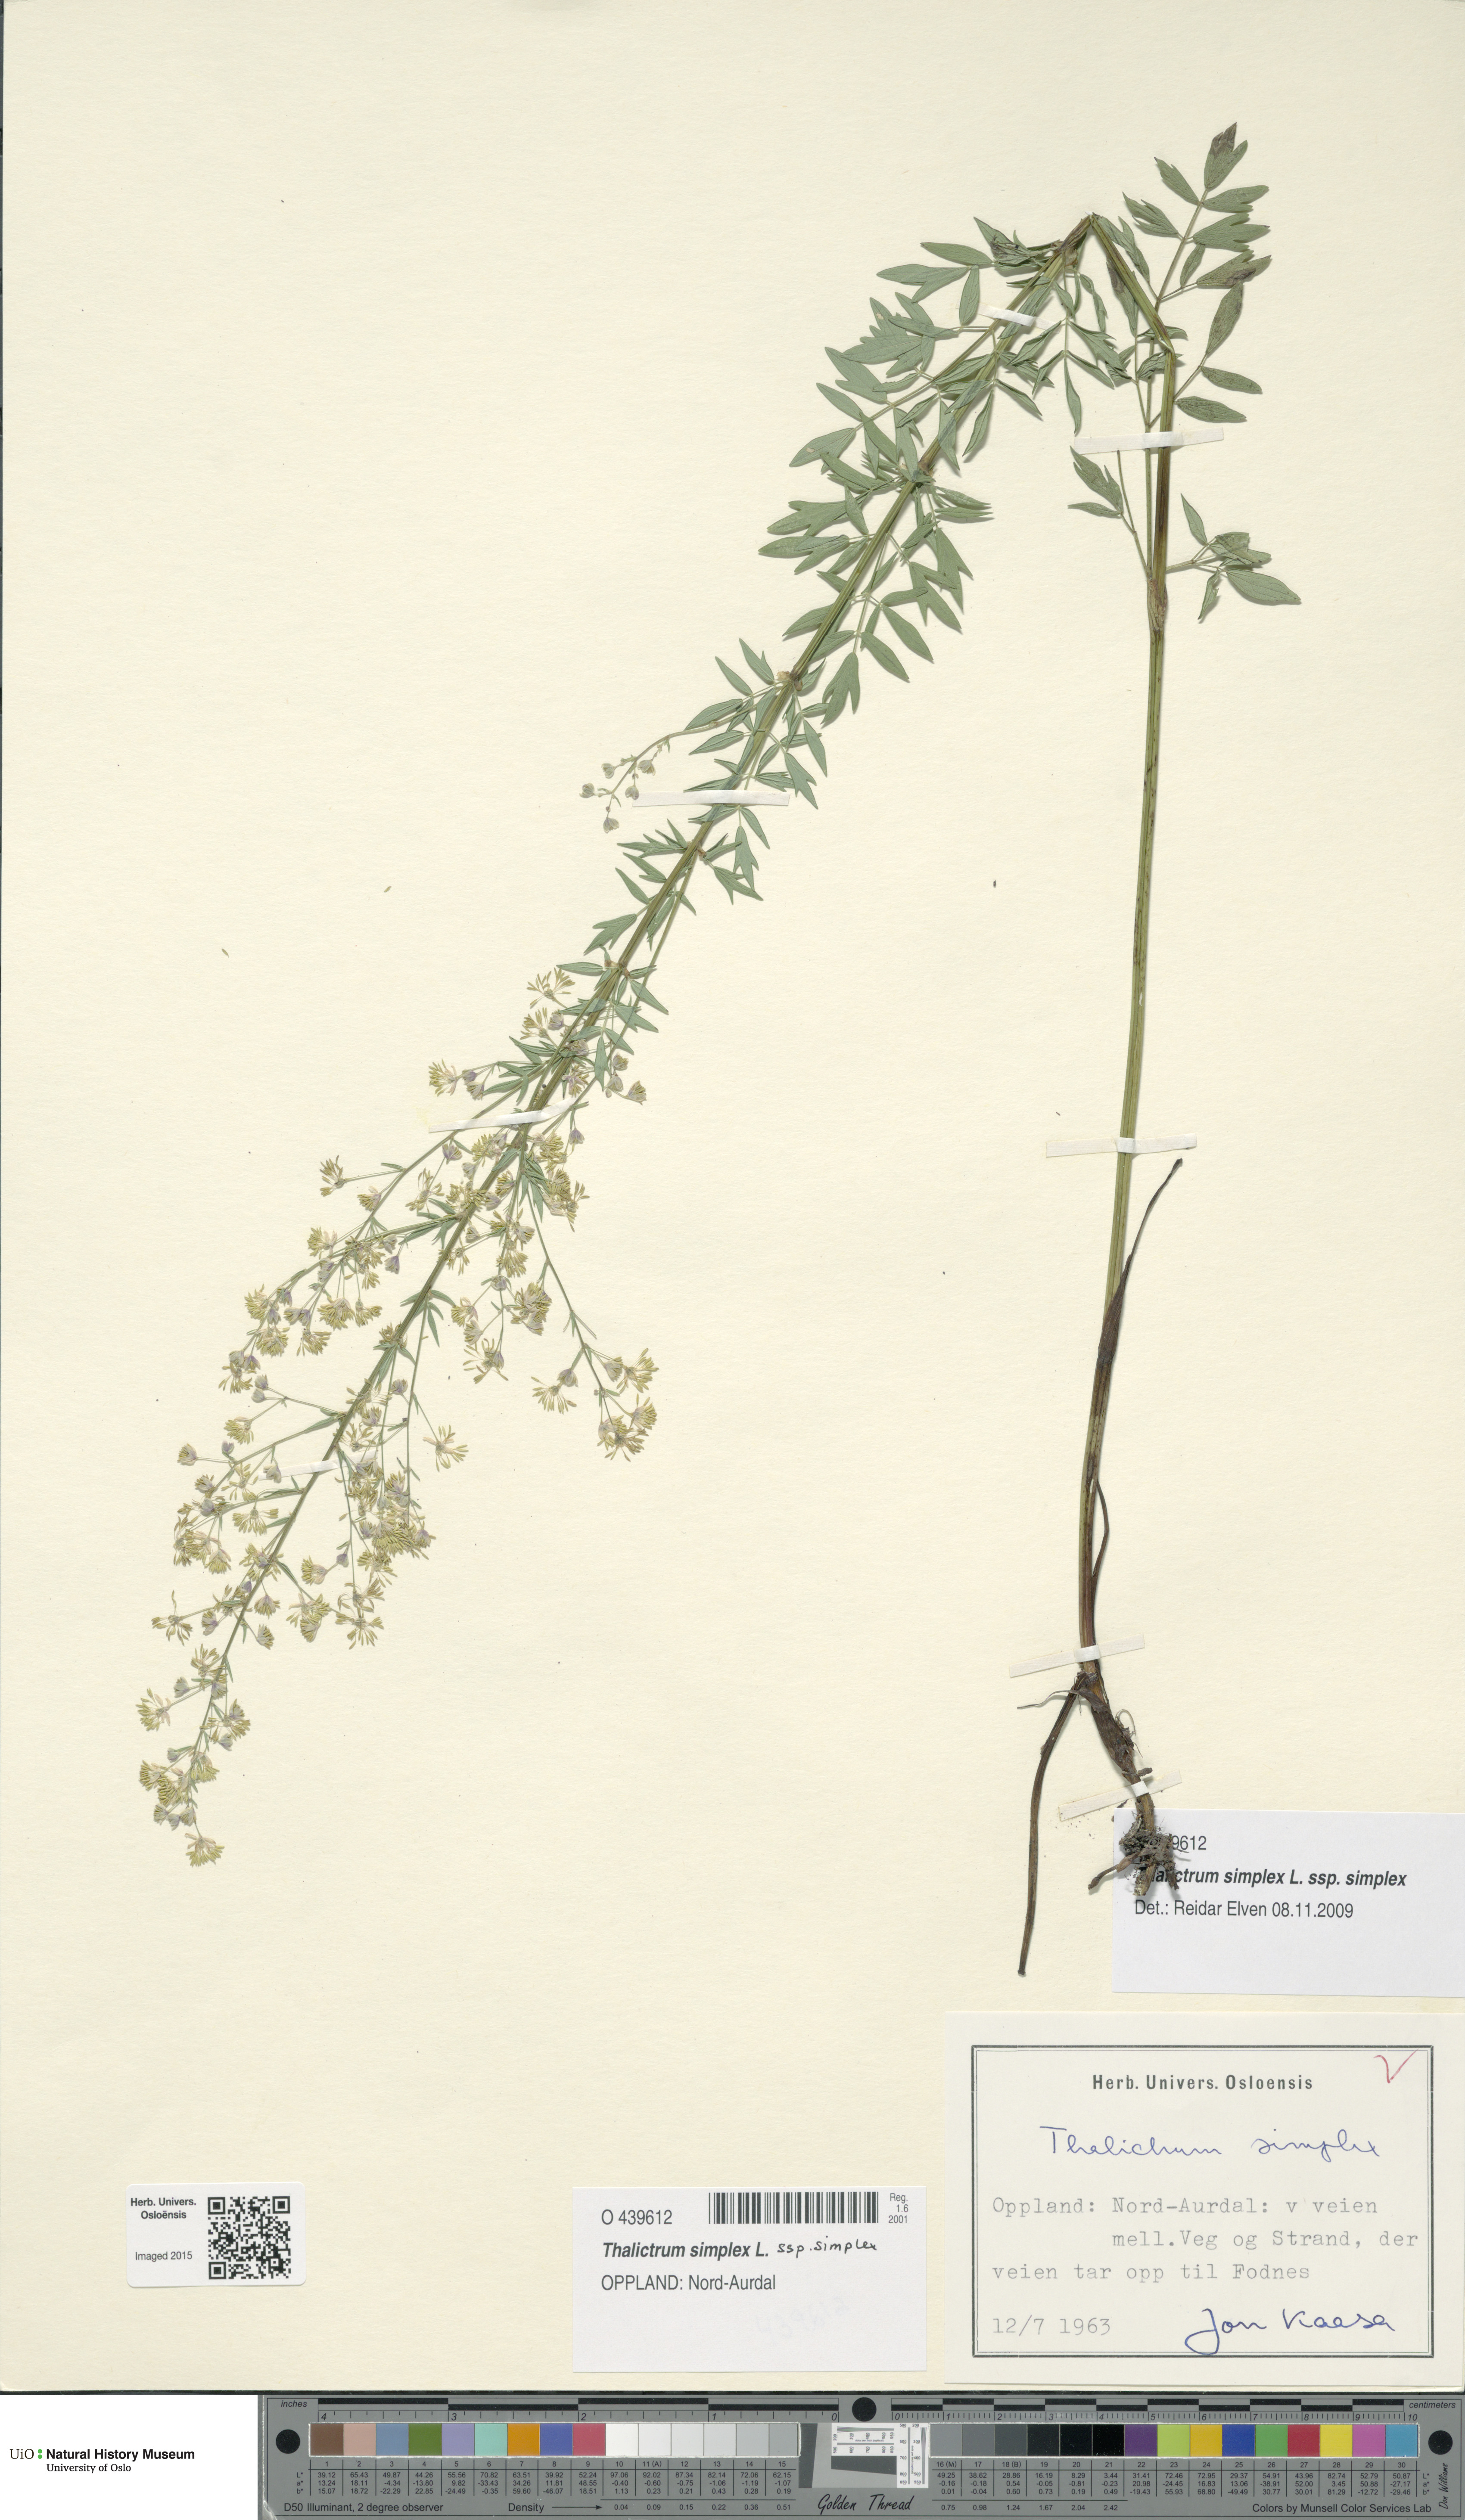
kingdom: Plantae
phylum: Tracheophyta
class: Magnoliopsida
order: Ranunculales
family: Ranunculaceae
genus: Thalictrum
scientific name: Thalictrum simplex
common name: Small meadow-rue
